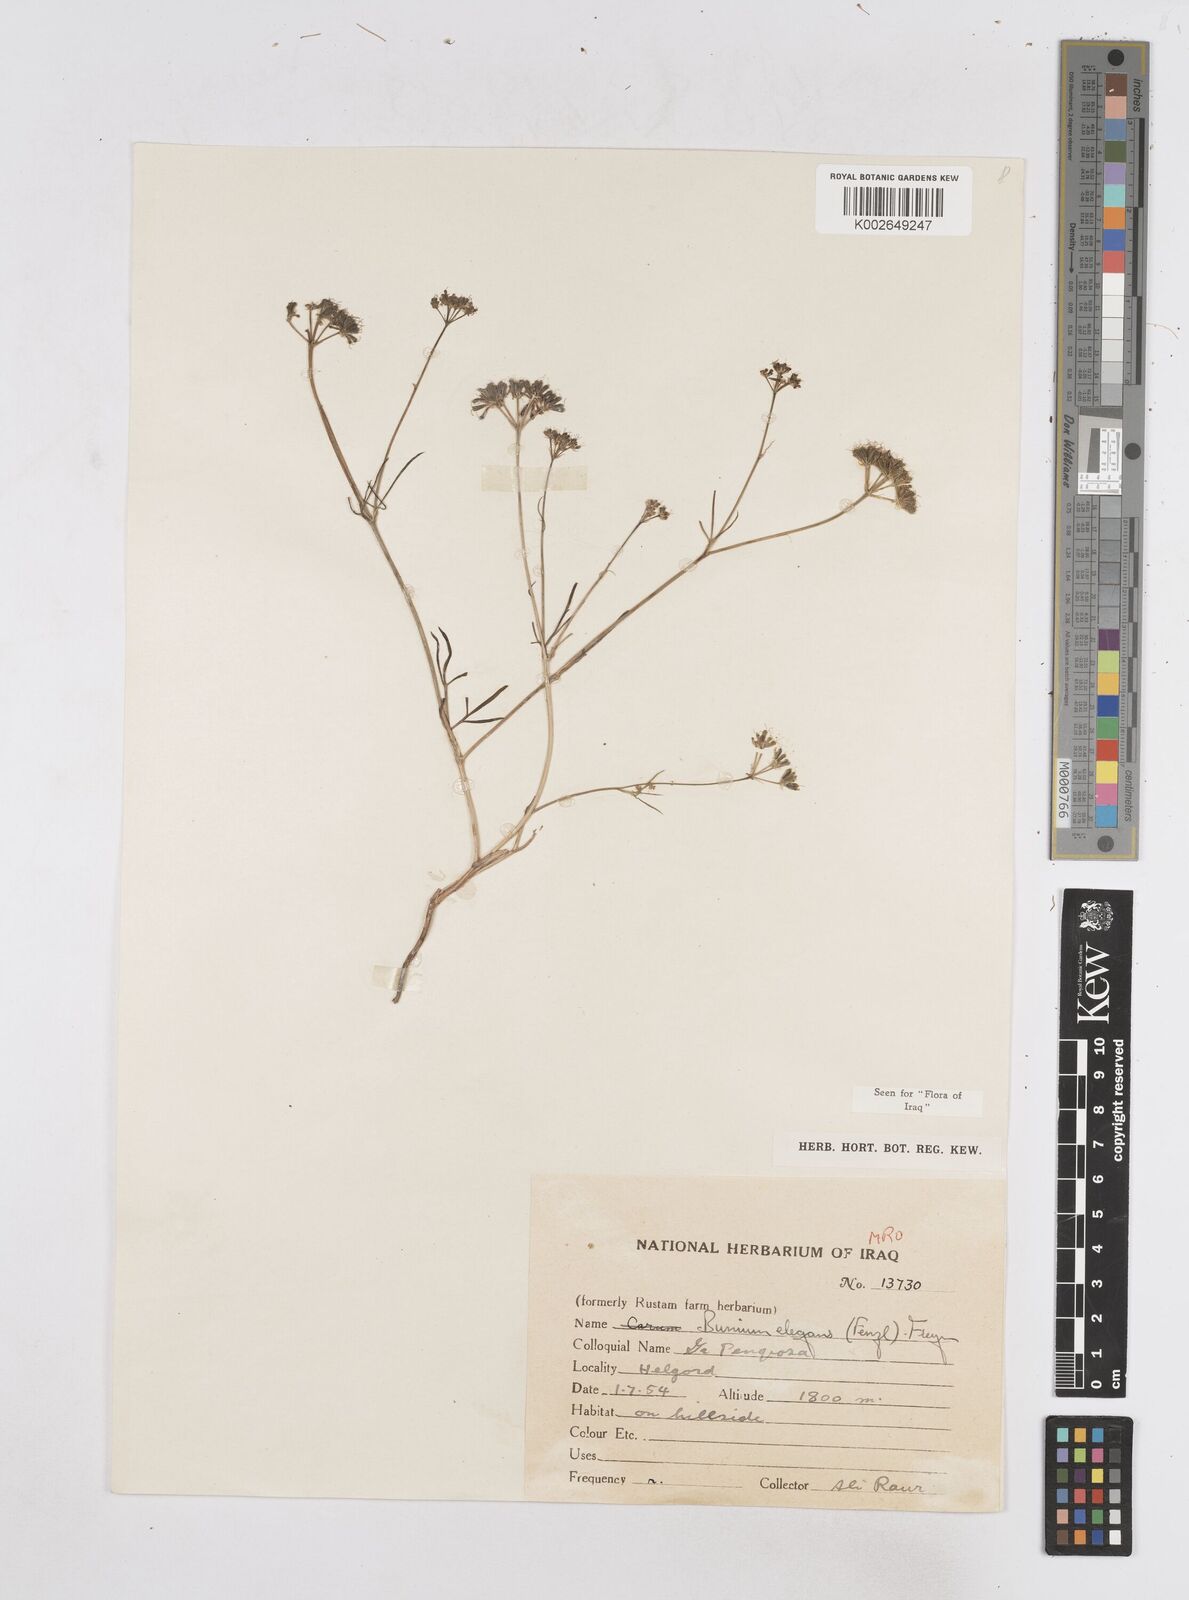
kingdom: Plantae
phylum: Tracheophyta
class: Magnoliopsida
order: Apiales
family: Apiaceae
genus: Bunium
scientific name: Bunium paucifolium
